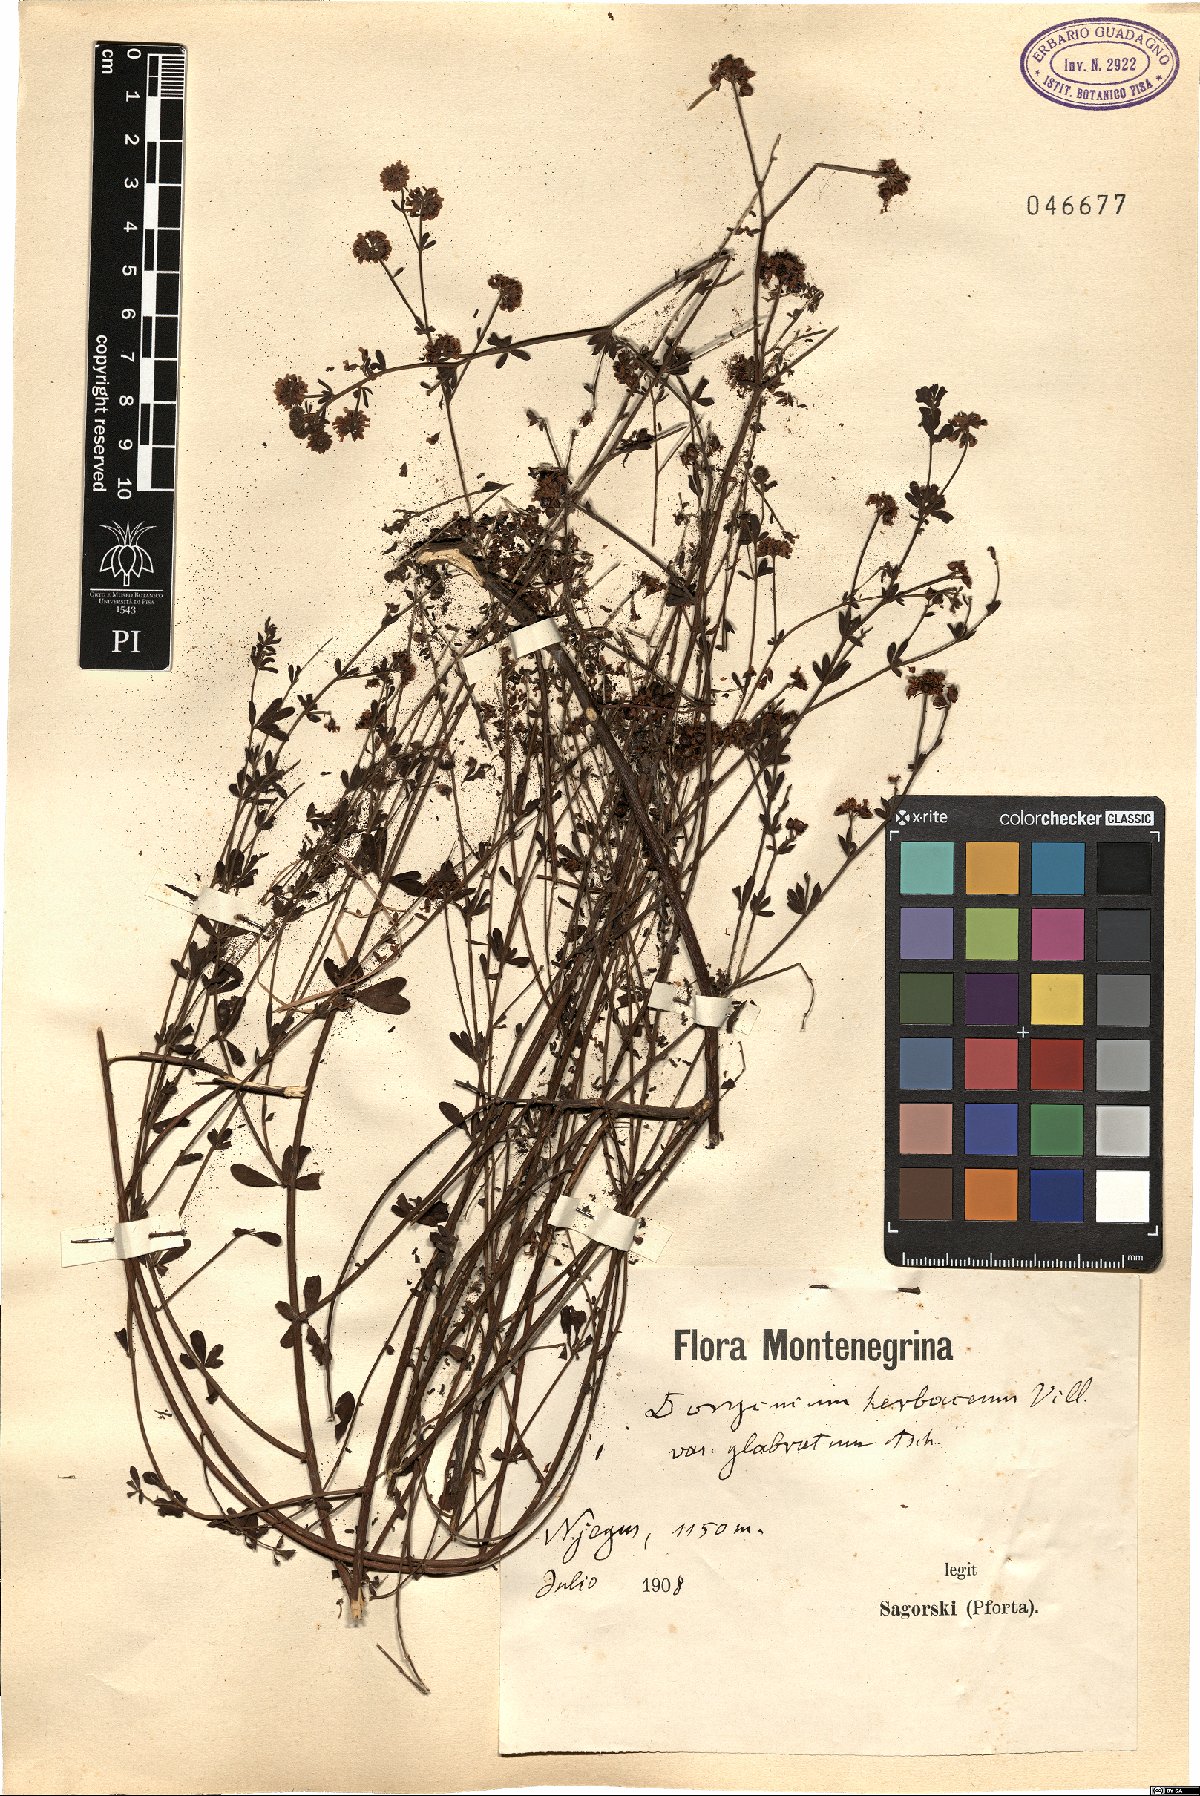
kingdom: Plantae
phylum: Tracheophyta
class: Magnoliopsida
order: Fabales
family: Fabaceae
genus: Lotus
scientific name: Lotus herbaceus
